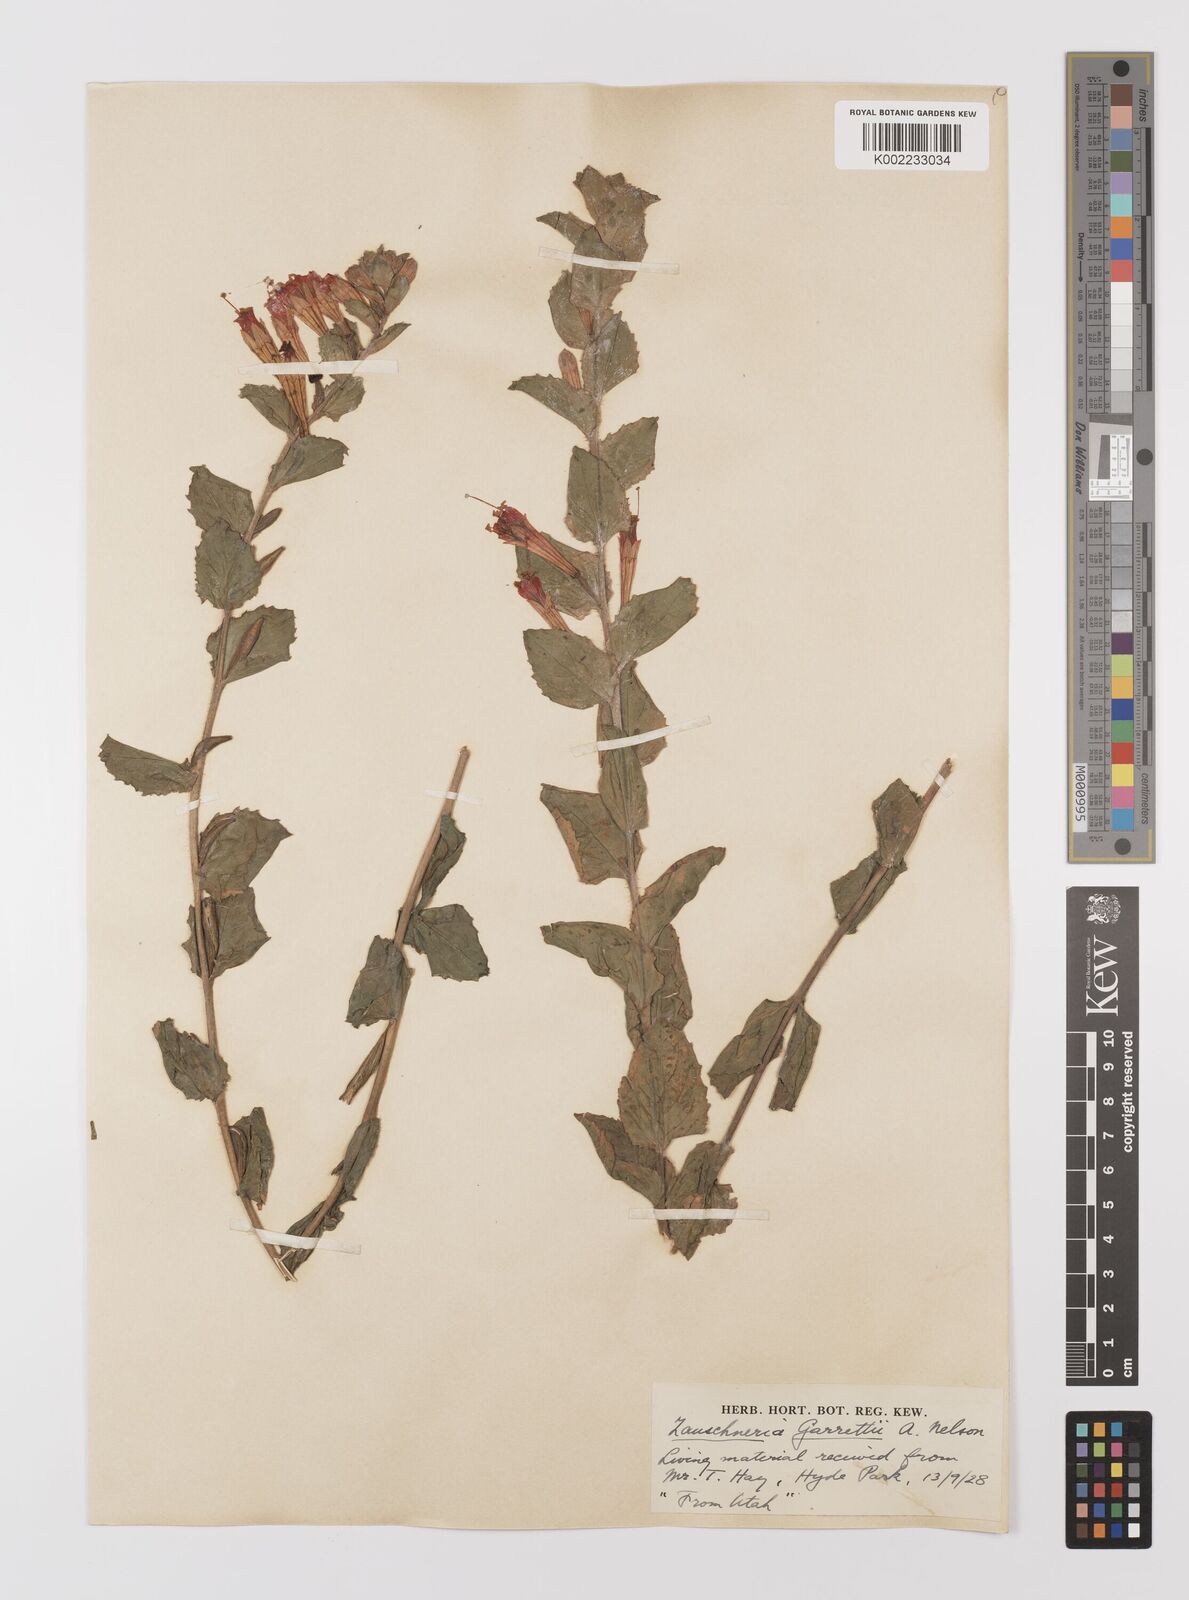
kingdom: Plantae
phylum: Tracheophyta
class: Magnoliopsida
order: Myrtales
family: Onagraceae
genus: Epilobium
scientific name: Epilobium
